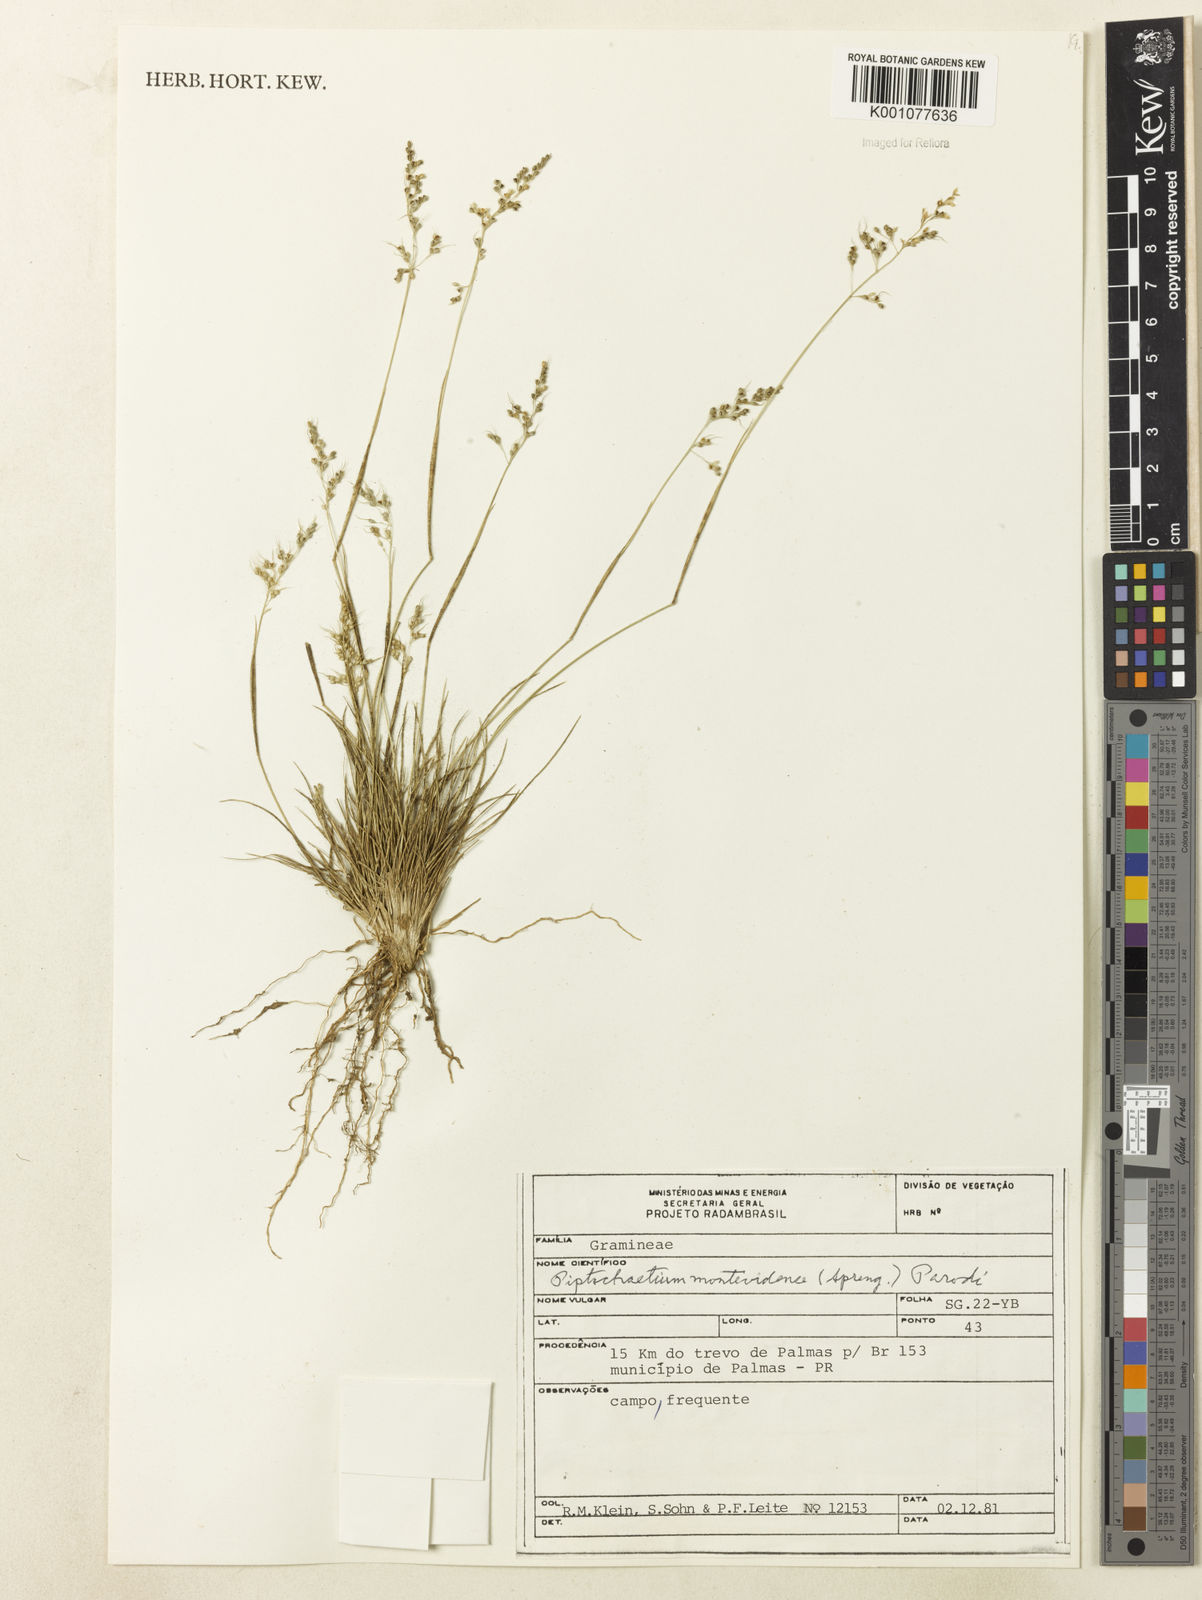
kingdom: Plantae
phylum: Tracheophyta
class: Liliopsida
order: Poales
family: Poaceae
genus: Piptochaetium
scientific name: Piptochaetium montevidense
